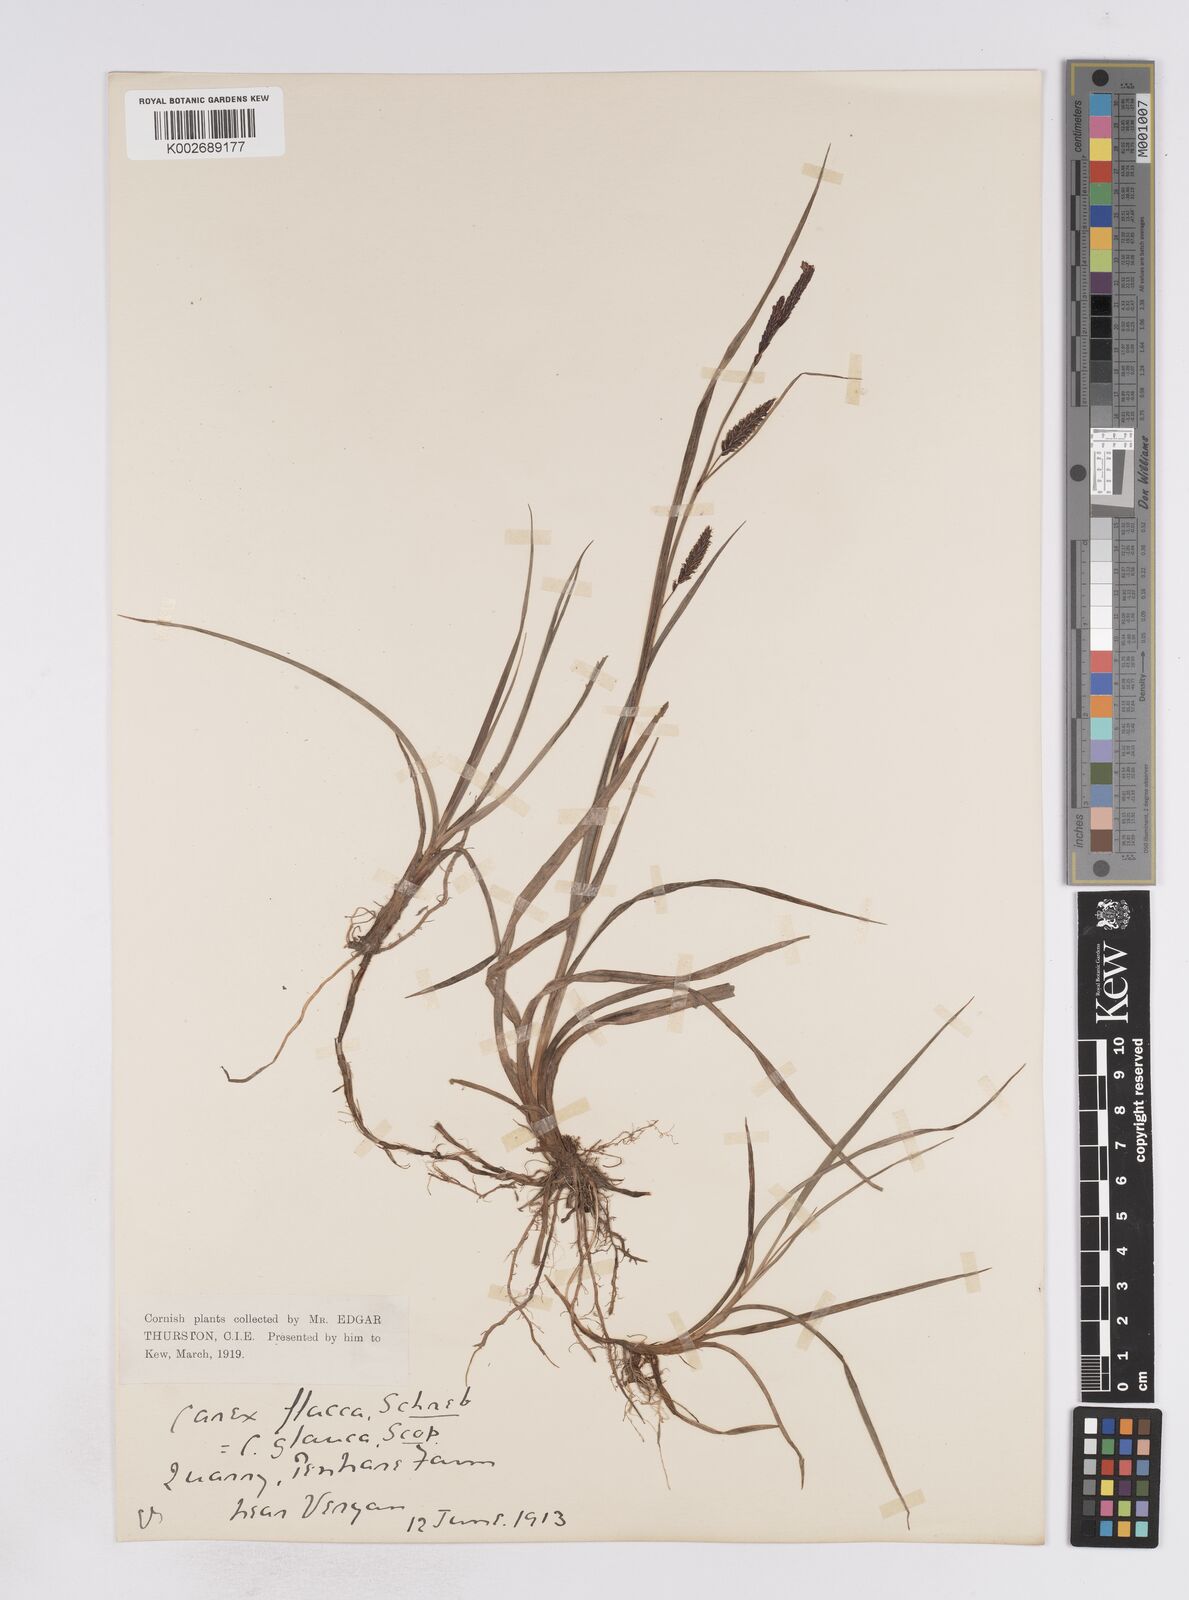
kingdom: Plantae
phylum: Tracheophyta
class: Liliopsida
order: Poales
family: Cyperaceae
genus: Carex
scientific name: Carex flacca
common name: Glaucous sedge
